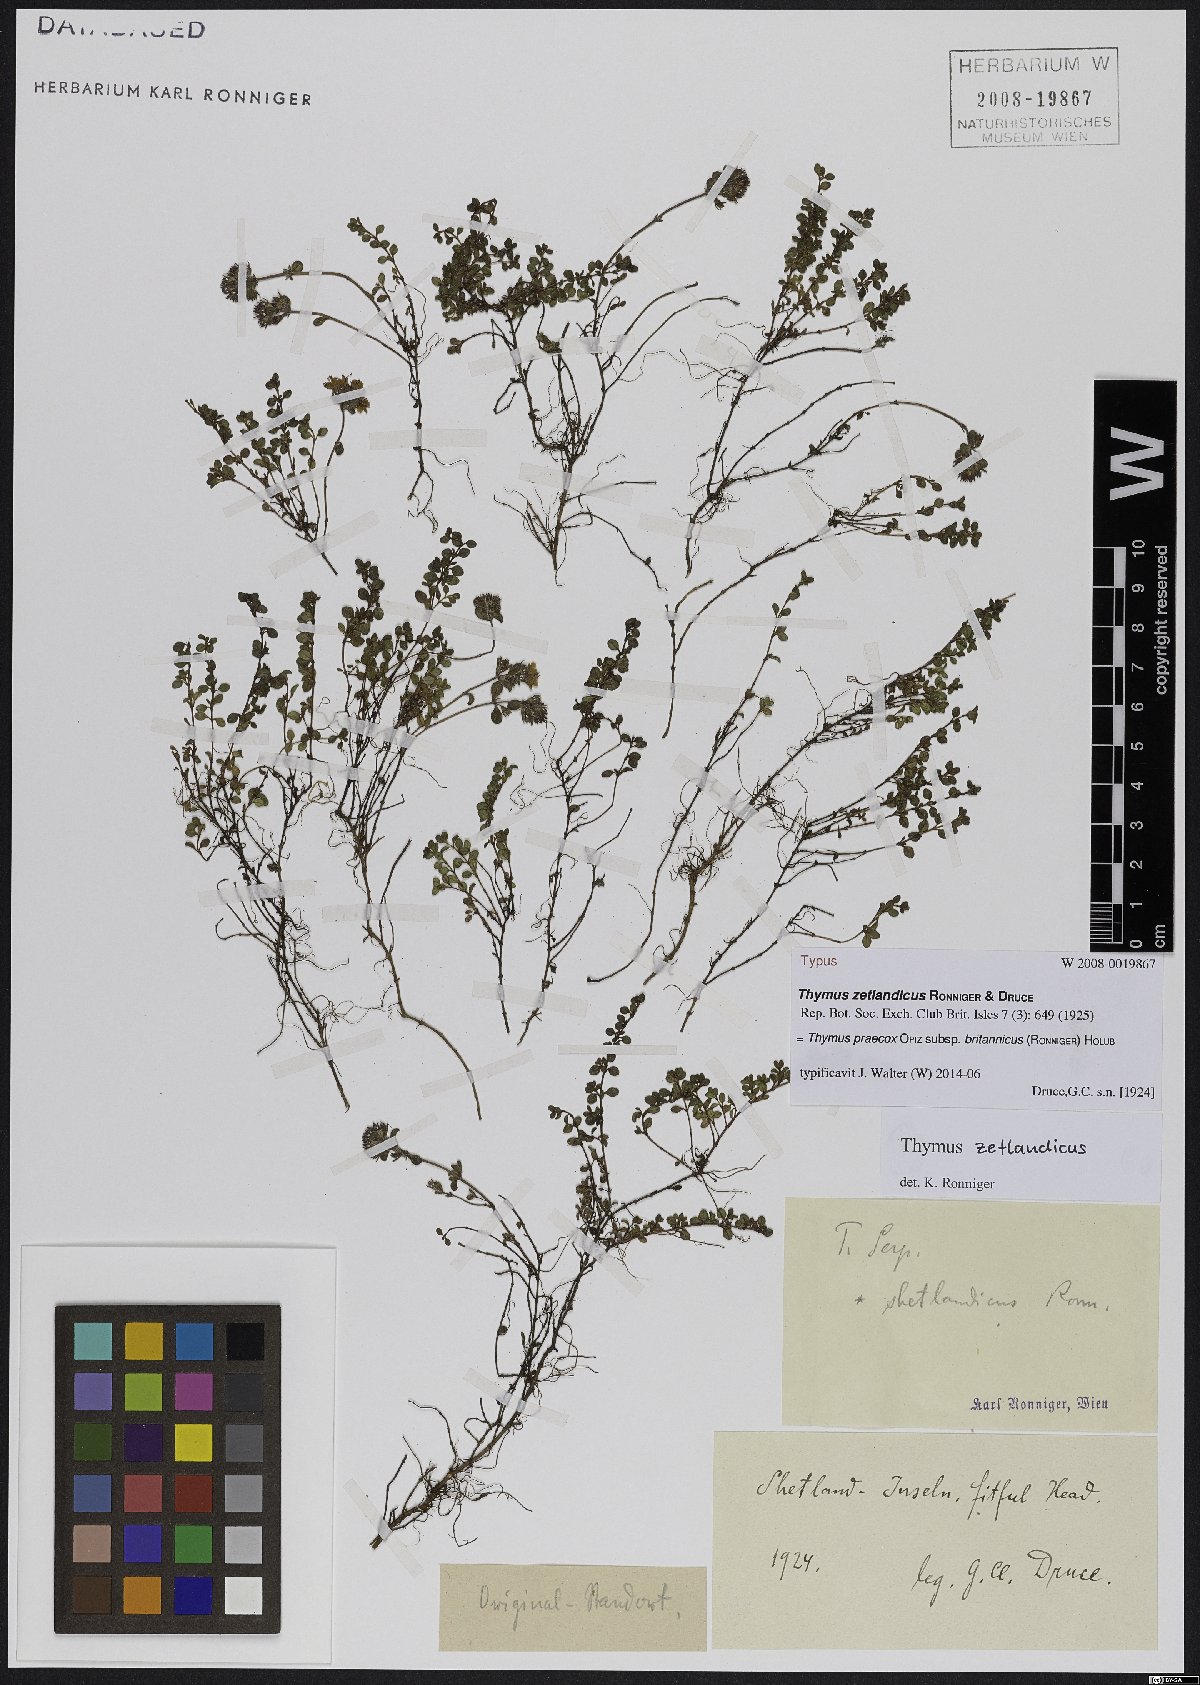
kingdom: Plantae
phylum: Tracheophyta
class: Magnoliopsida
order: Lamiales
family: Lamiaceae
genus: Thymus
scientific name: Thymus praecox
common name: Wild thyme
